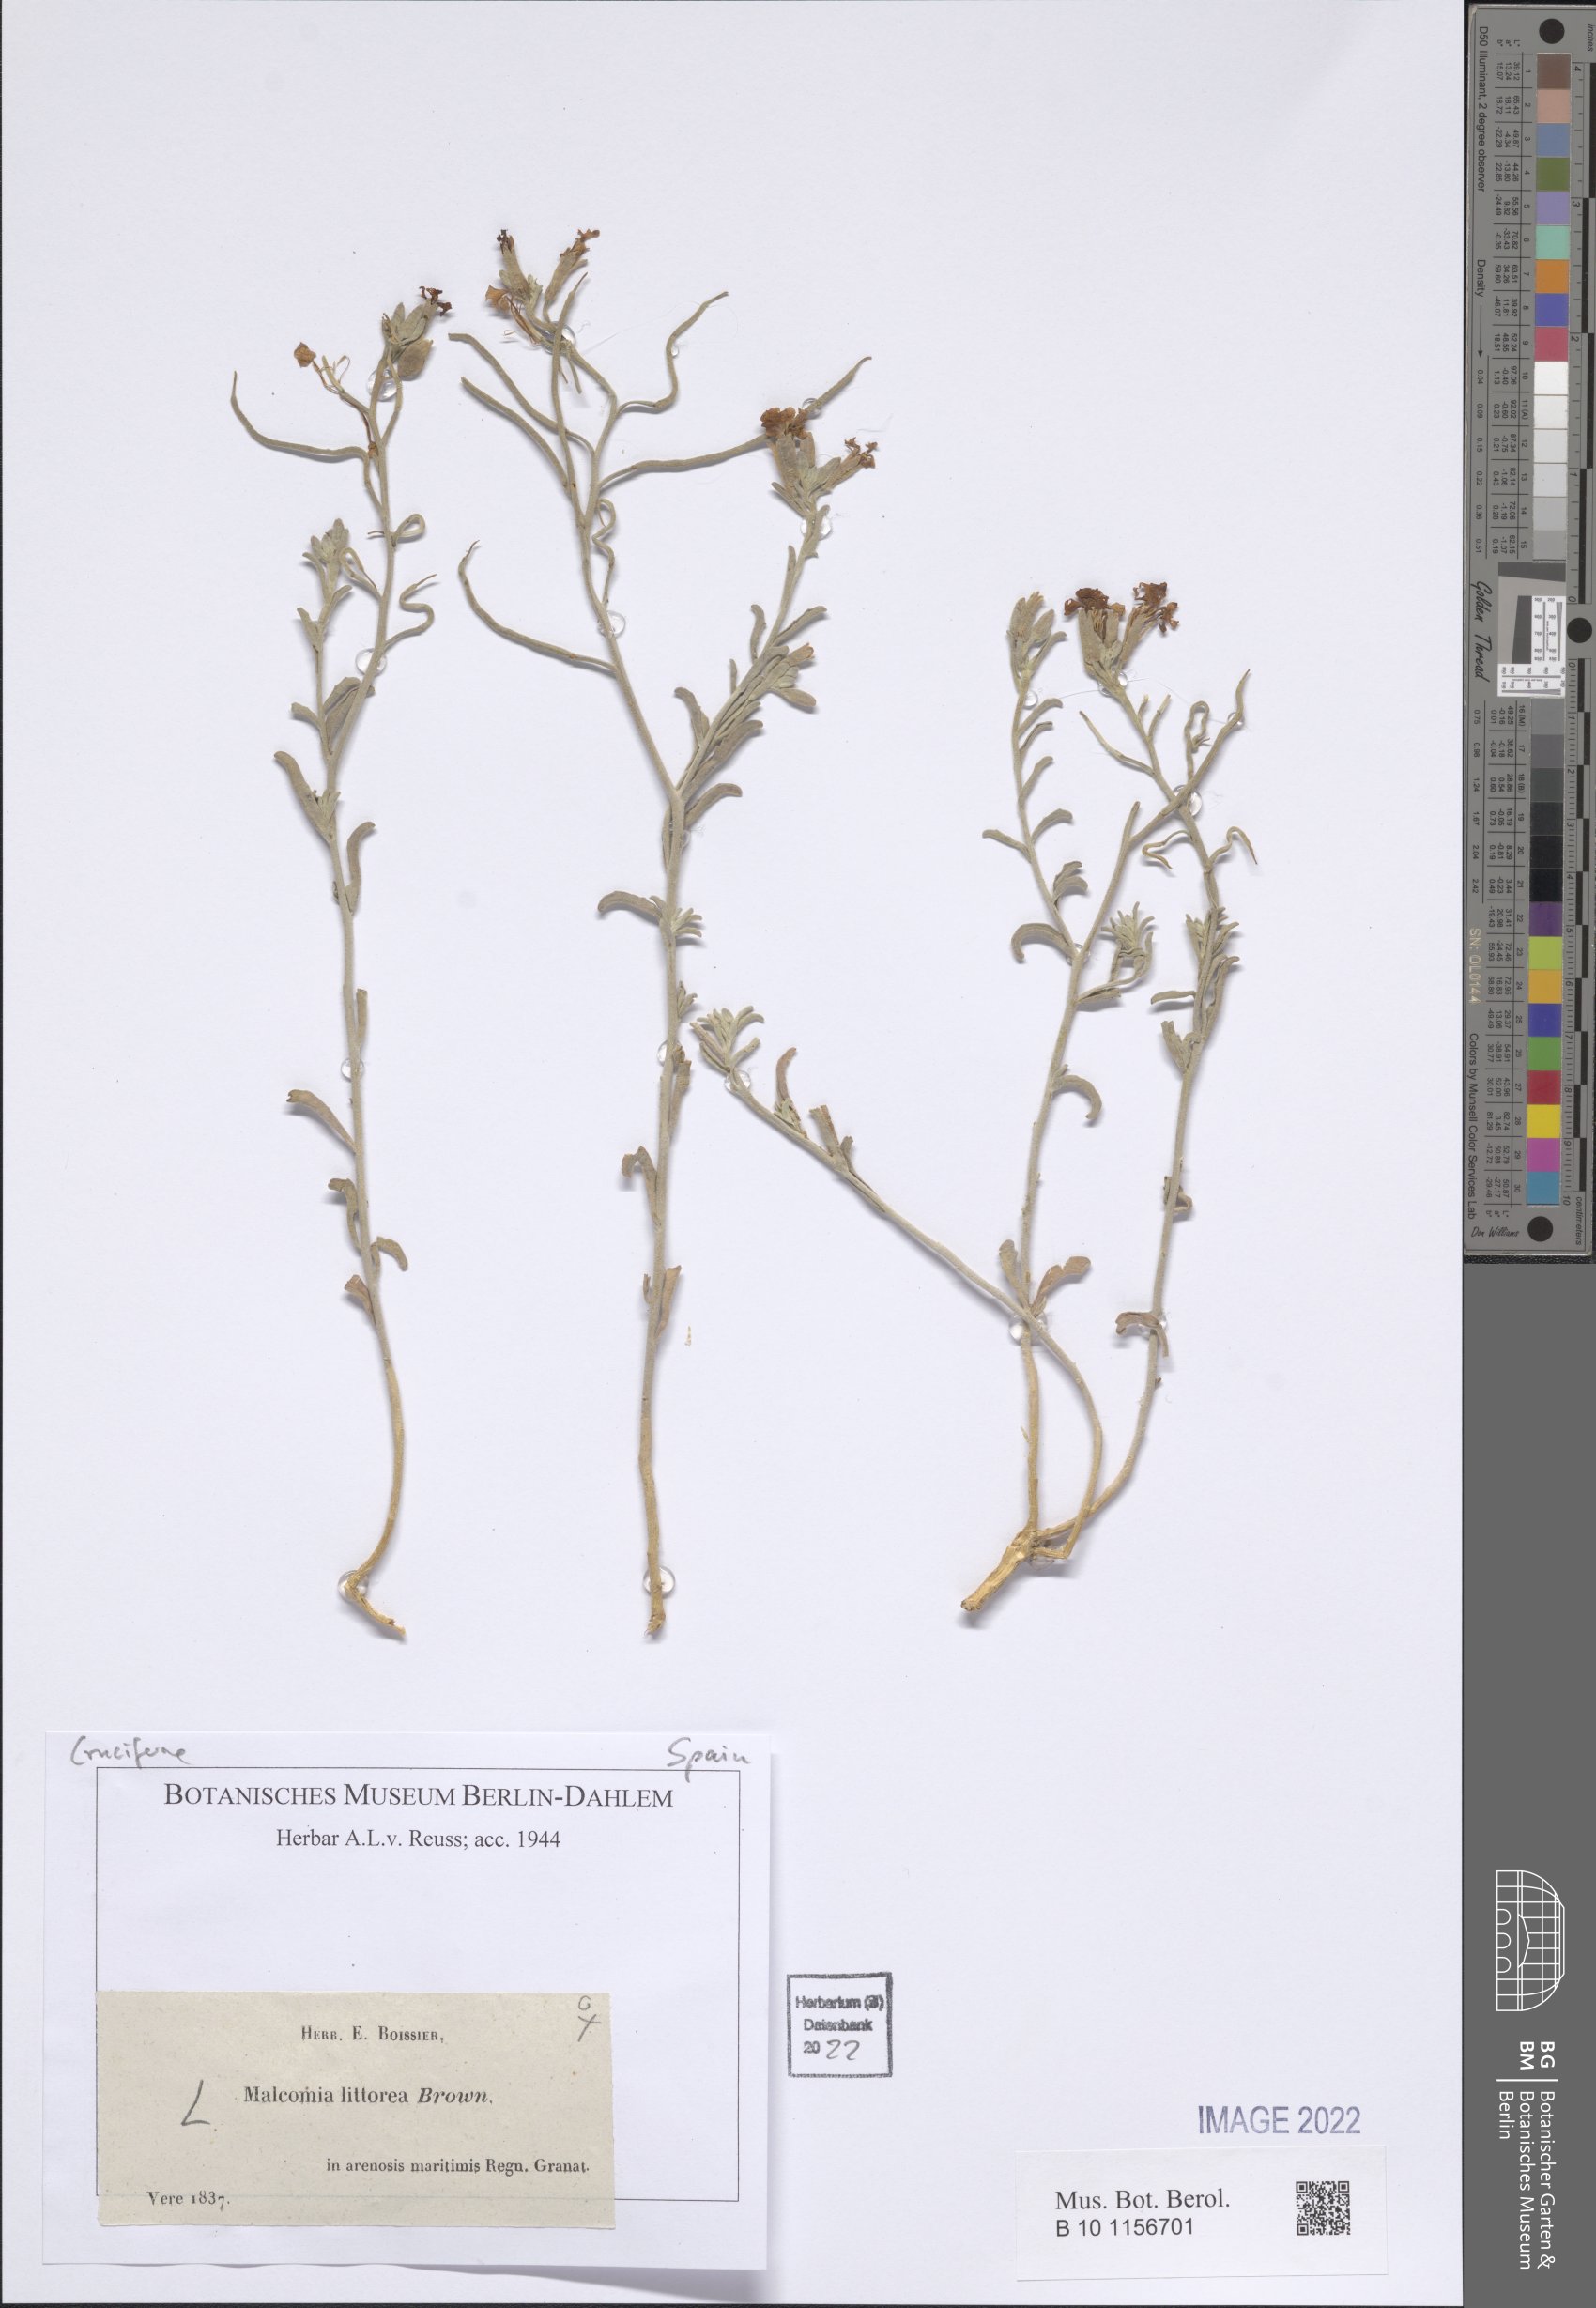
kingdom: Plantae
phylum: Tracheophyta
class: Magnoliopsida
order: Brassicales
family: Brassicaceae
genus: Marcuskochia
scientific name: Marcuskochia littorea
